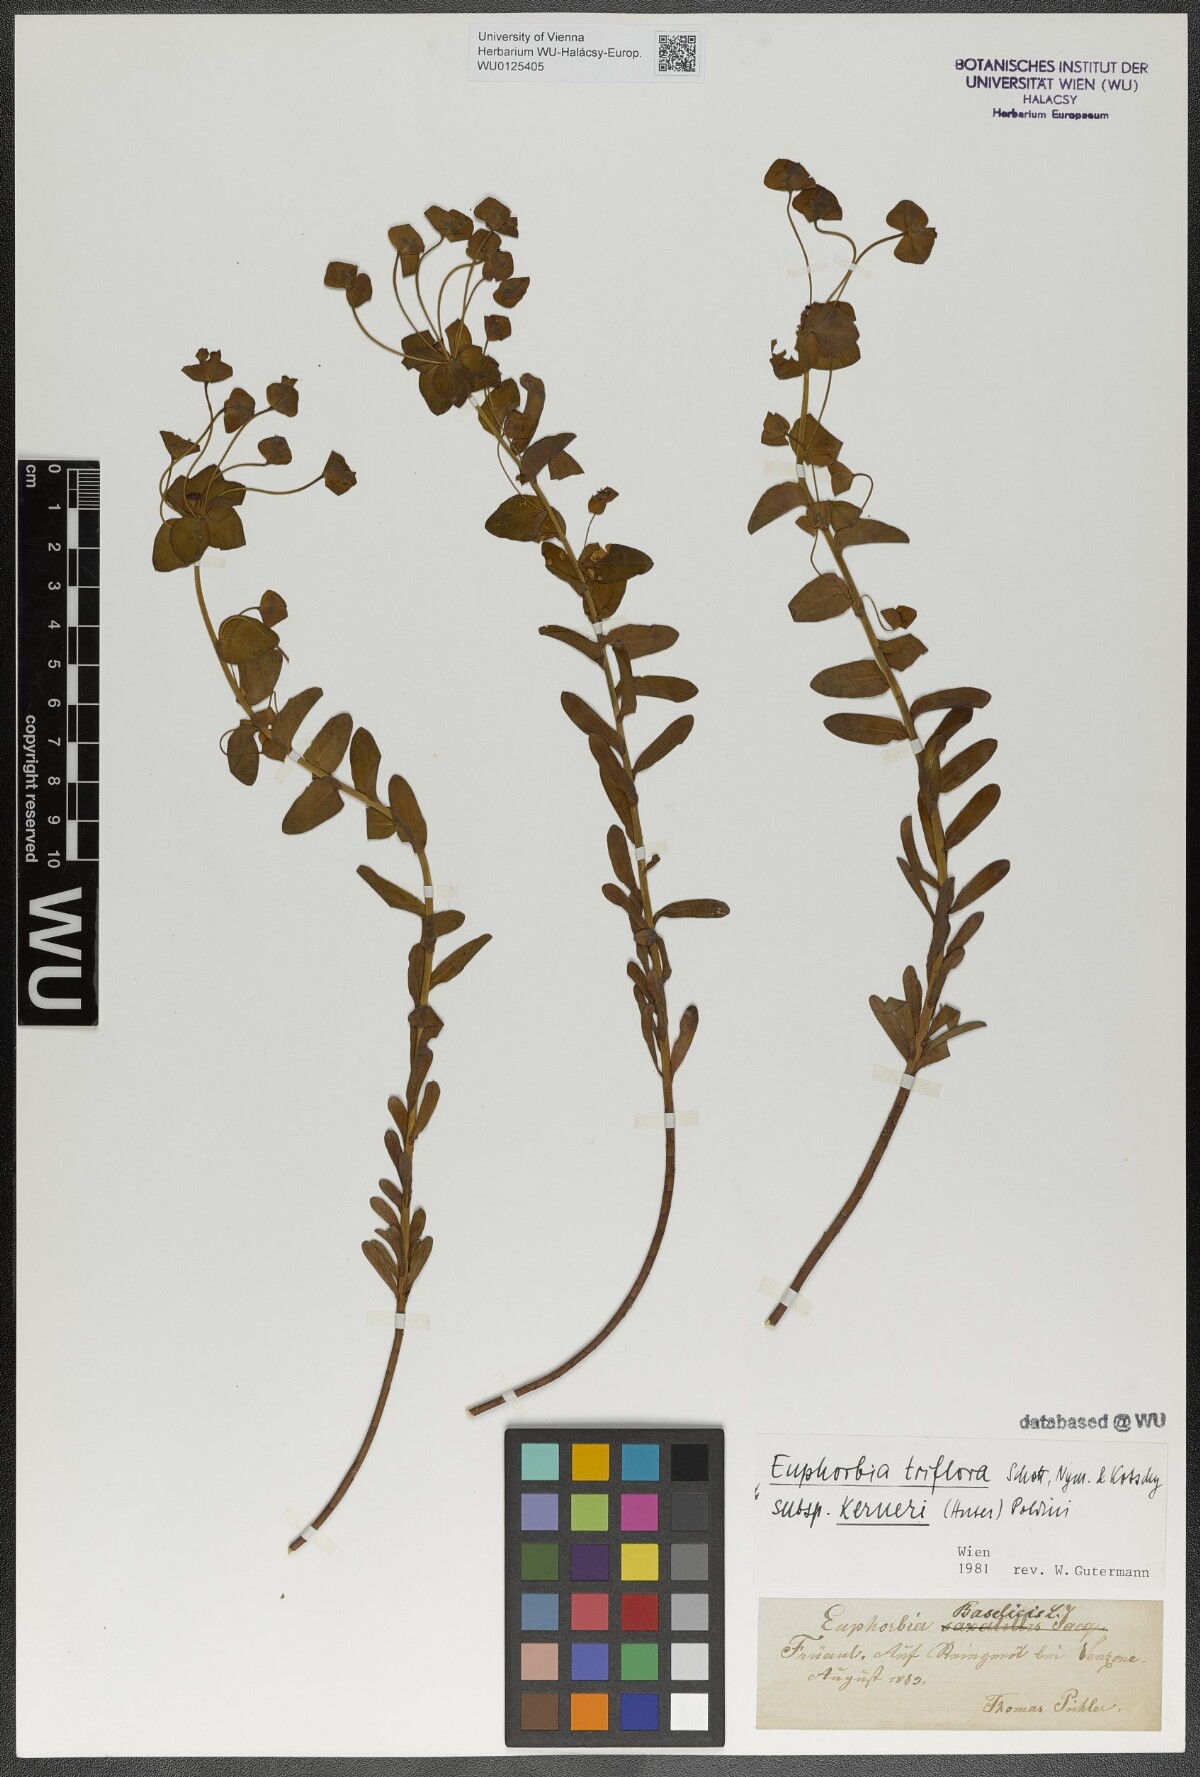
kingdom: Plantae
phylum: Tracheophyta
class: Magnoliopsida
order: Malpighiales
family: Euphorbiaceae
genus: Euphorbia
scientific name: Euphorbia kerneri
